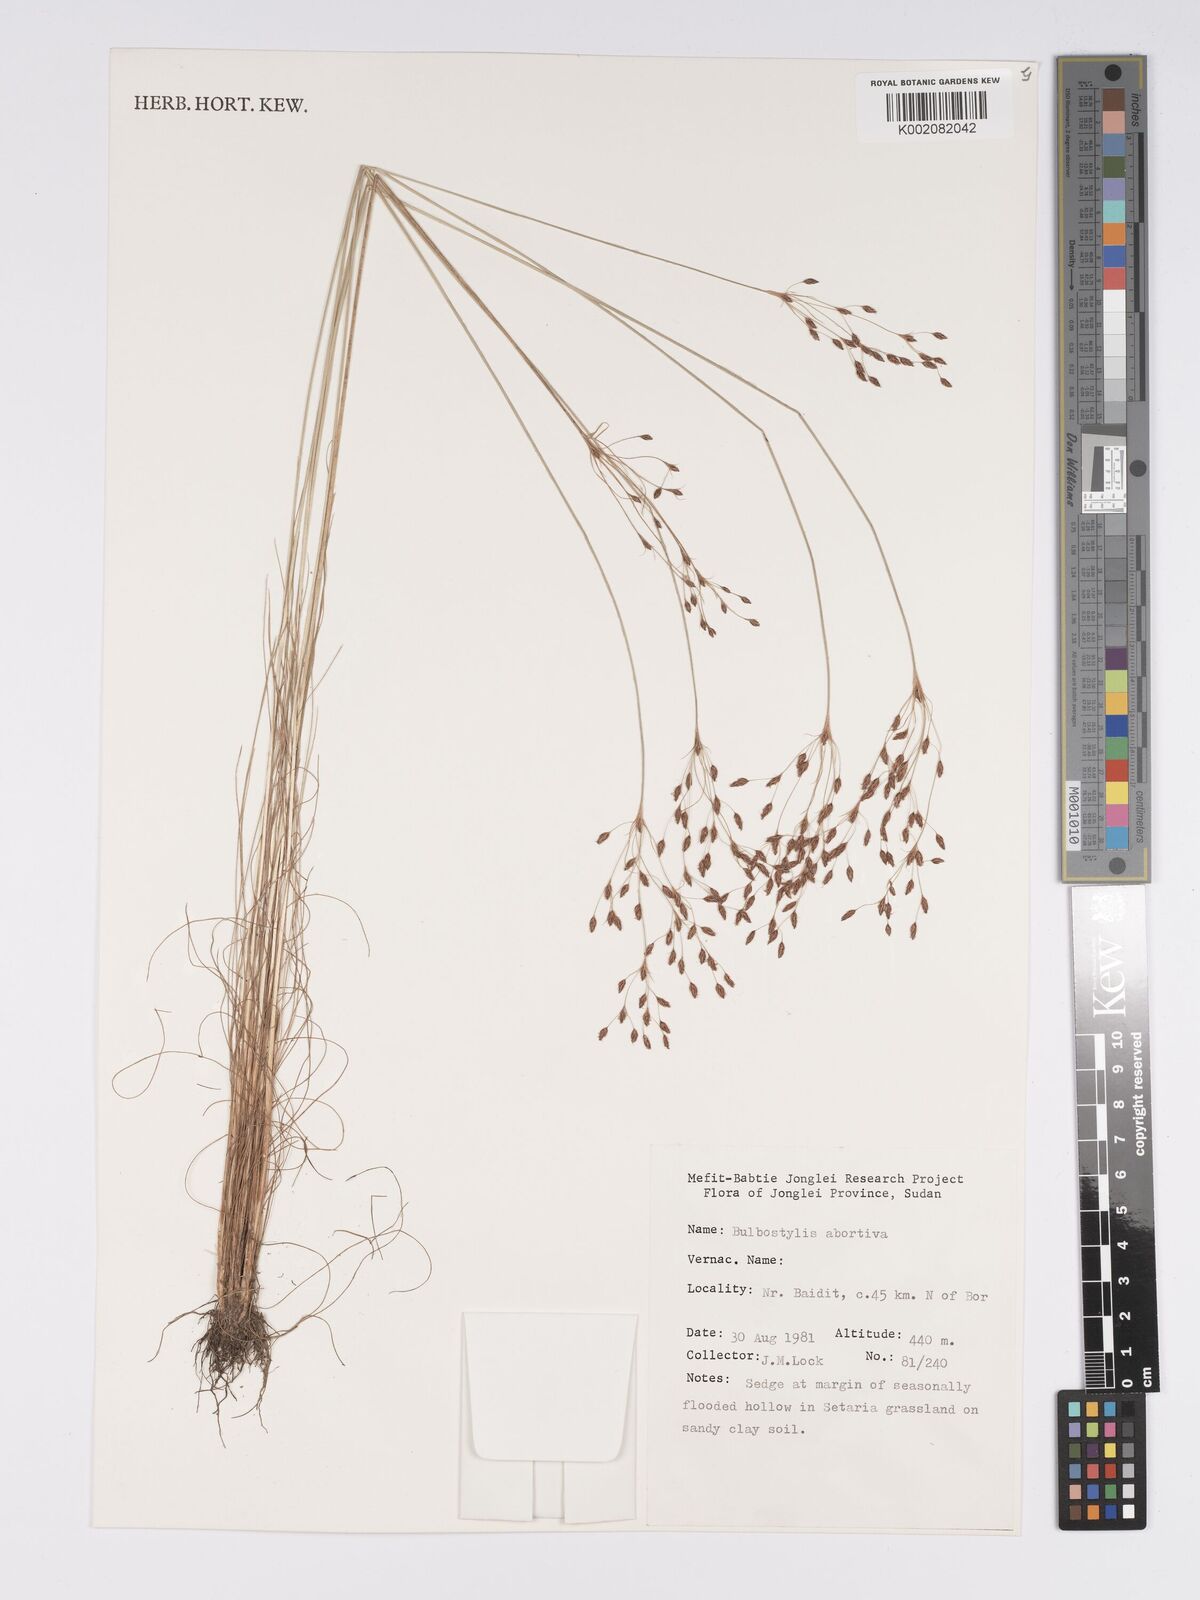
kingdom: Plantae
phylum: Tracheophyta
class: Liliopsida
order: Poales
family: Cyperaceae
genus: Bulbostylis
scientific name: Bulbostylis abortiva
